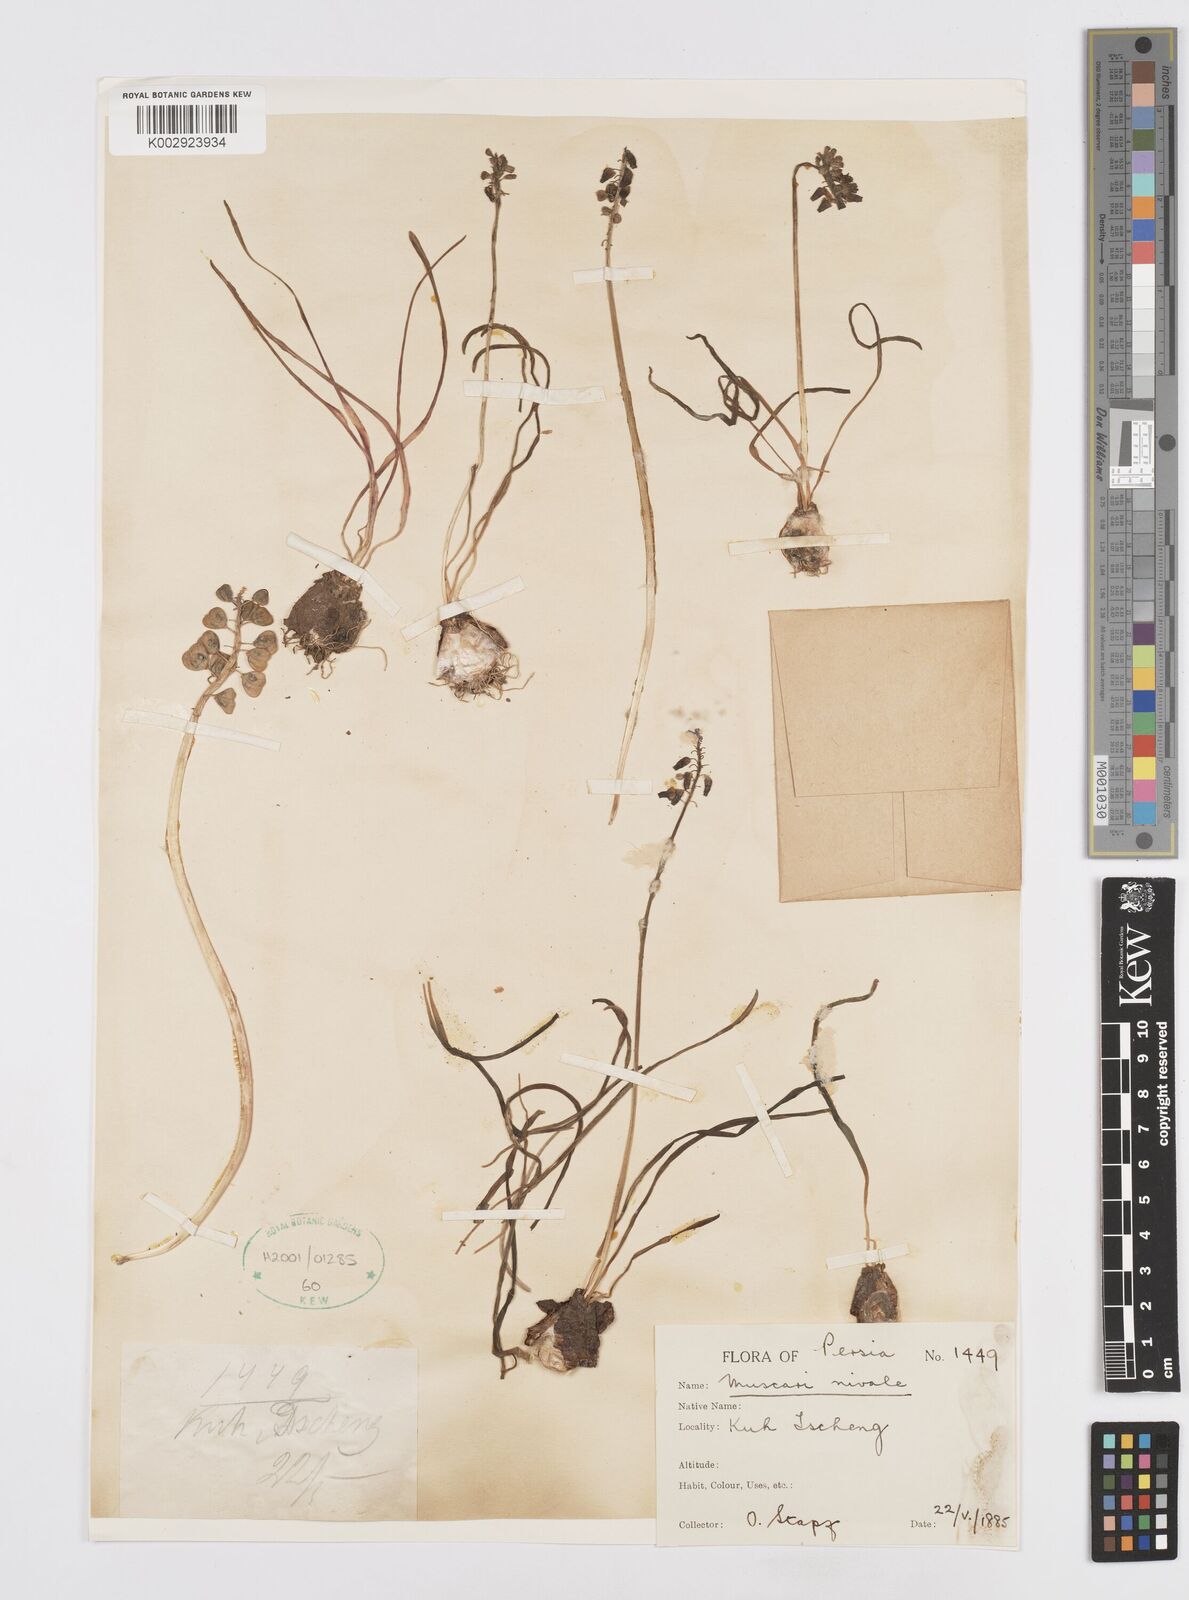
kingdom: Plantae
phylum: Tracheophyta
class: Liliopsida
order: Asparagales
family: Asparagaceae
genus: Muscari
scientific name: Muscari neglectum
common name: Grape-hyacinth
